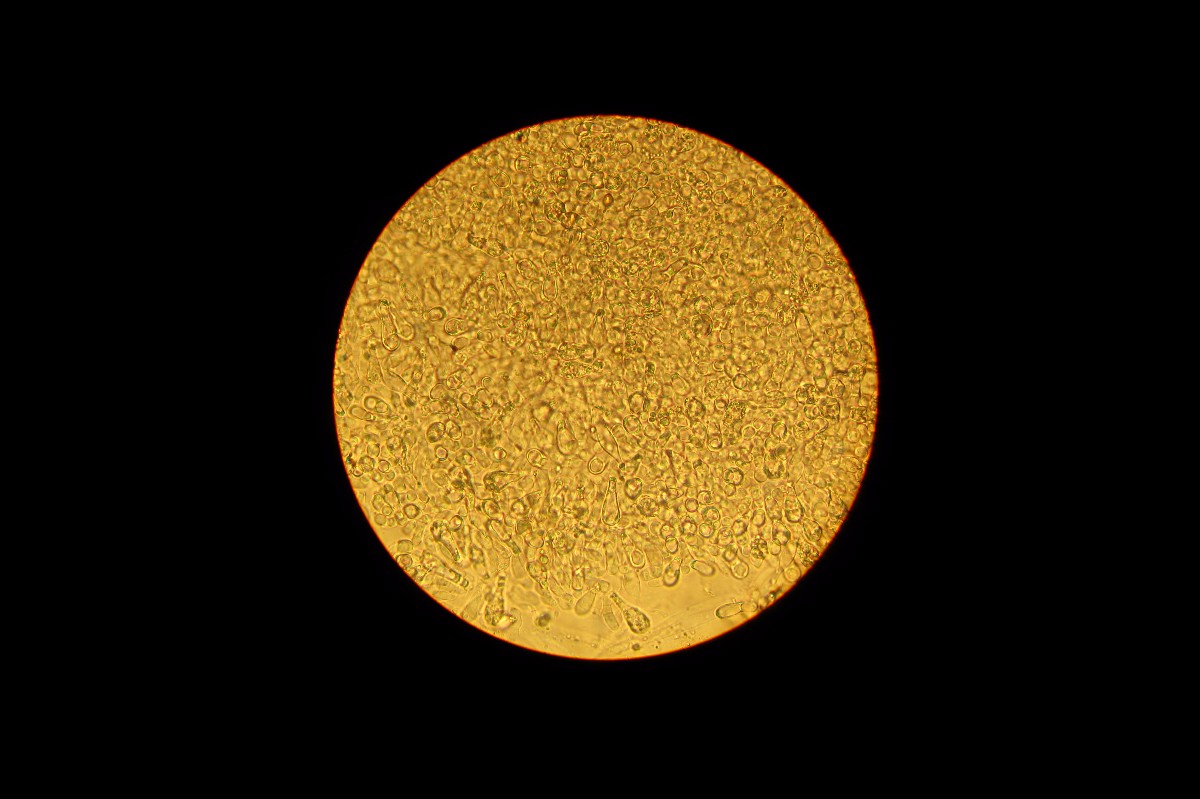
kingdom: Fungi
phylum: Basidiomycota
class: Agaricomycetes
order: Boletales
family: Boletaceae
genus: Leccinum
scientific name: Leccinum schistophilum
